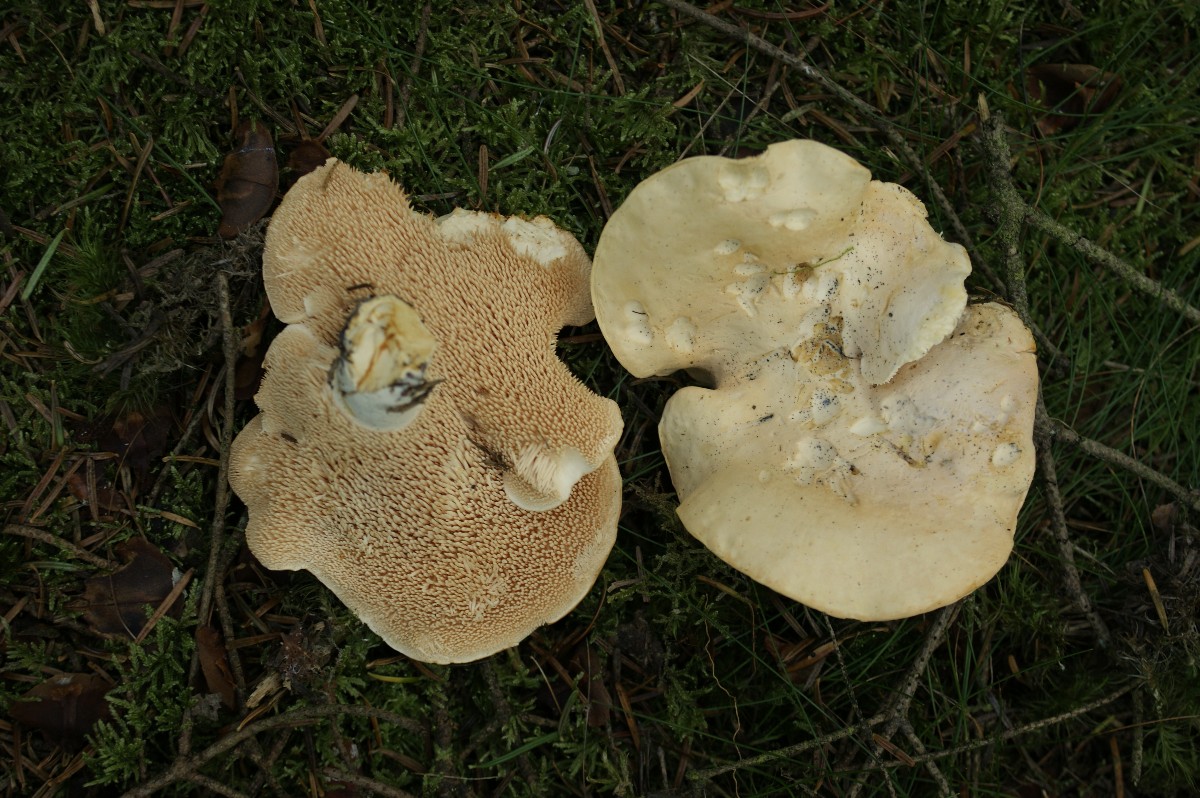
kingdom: Fungi
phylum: Basidiomycota
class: Agaricomycetes
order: Cantharellales
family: Hydnaceae
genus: Hydnum
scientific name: Hydnum repandum
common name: almindelig pigsvamp
